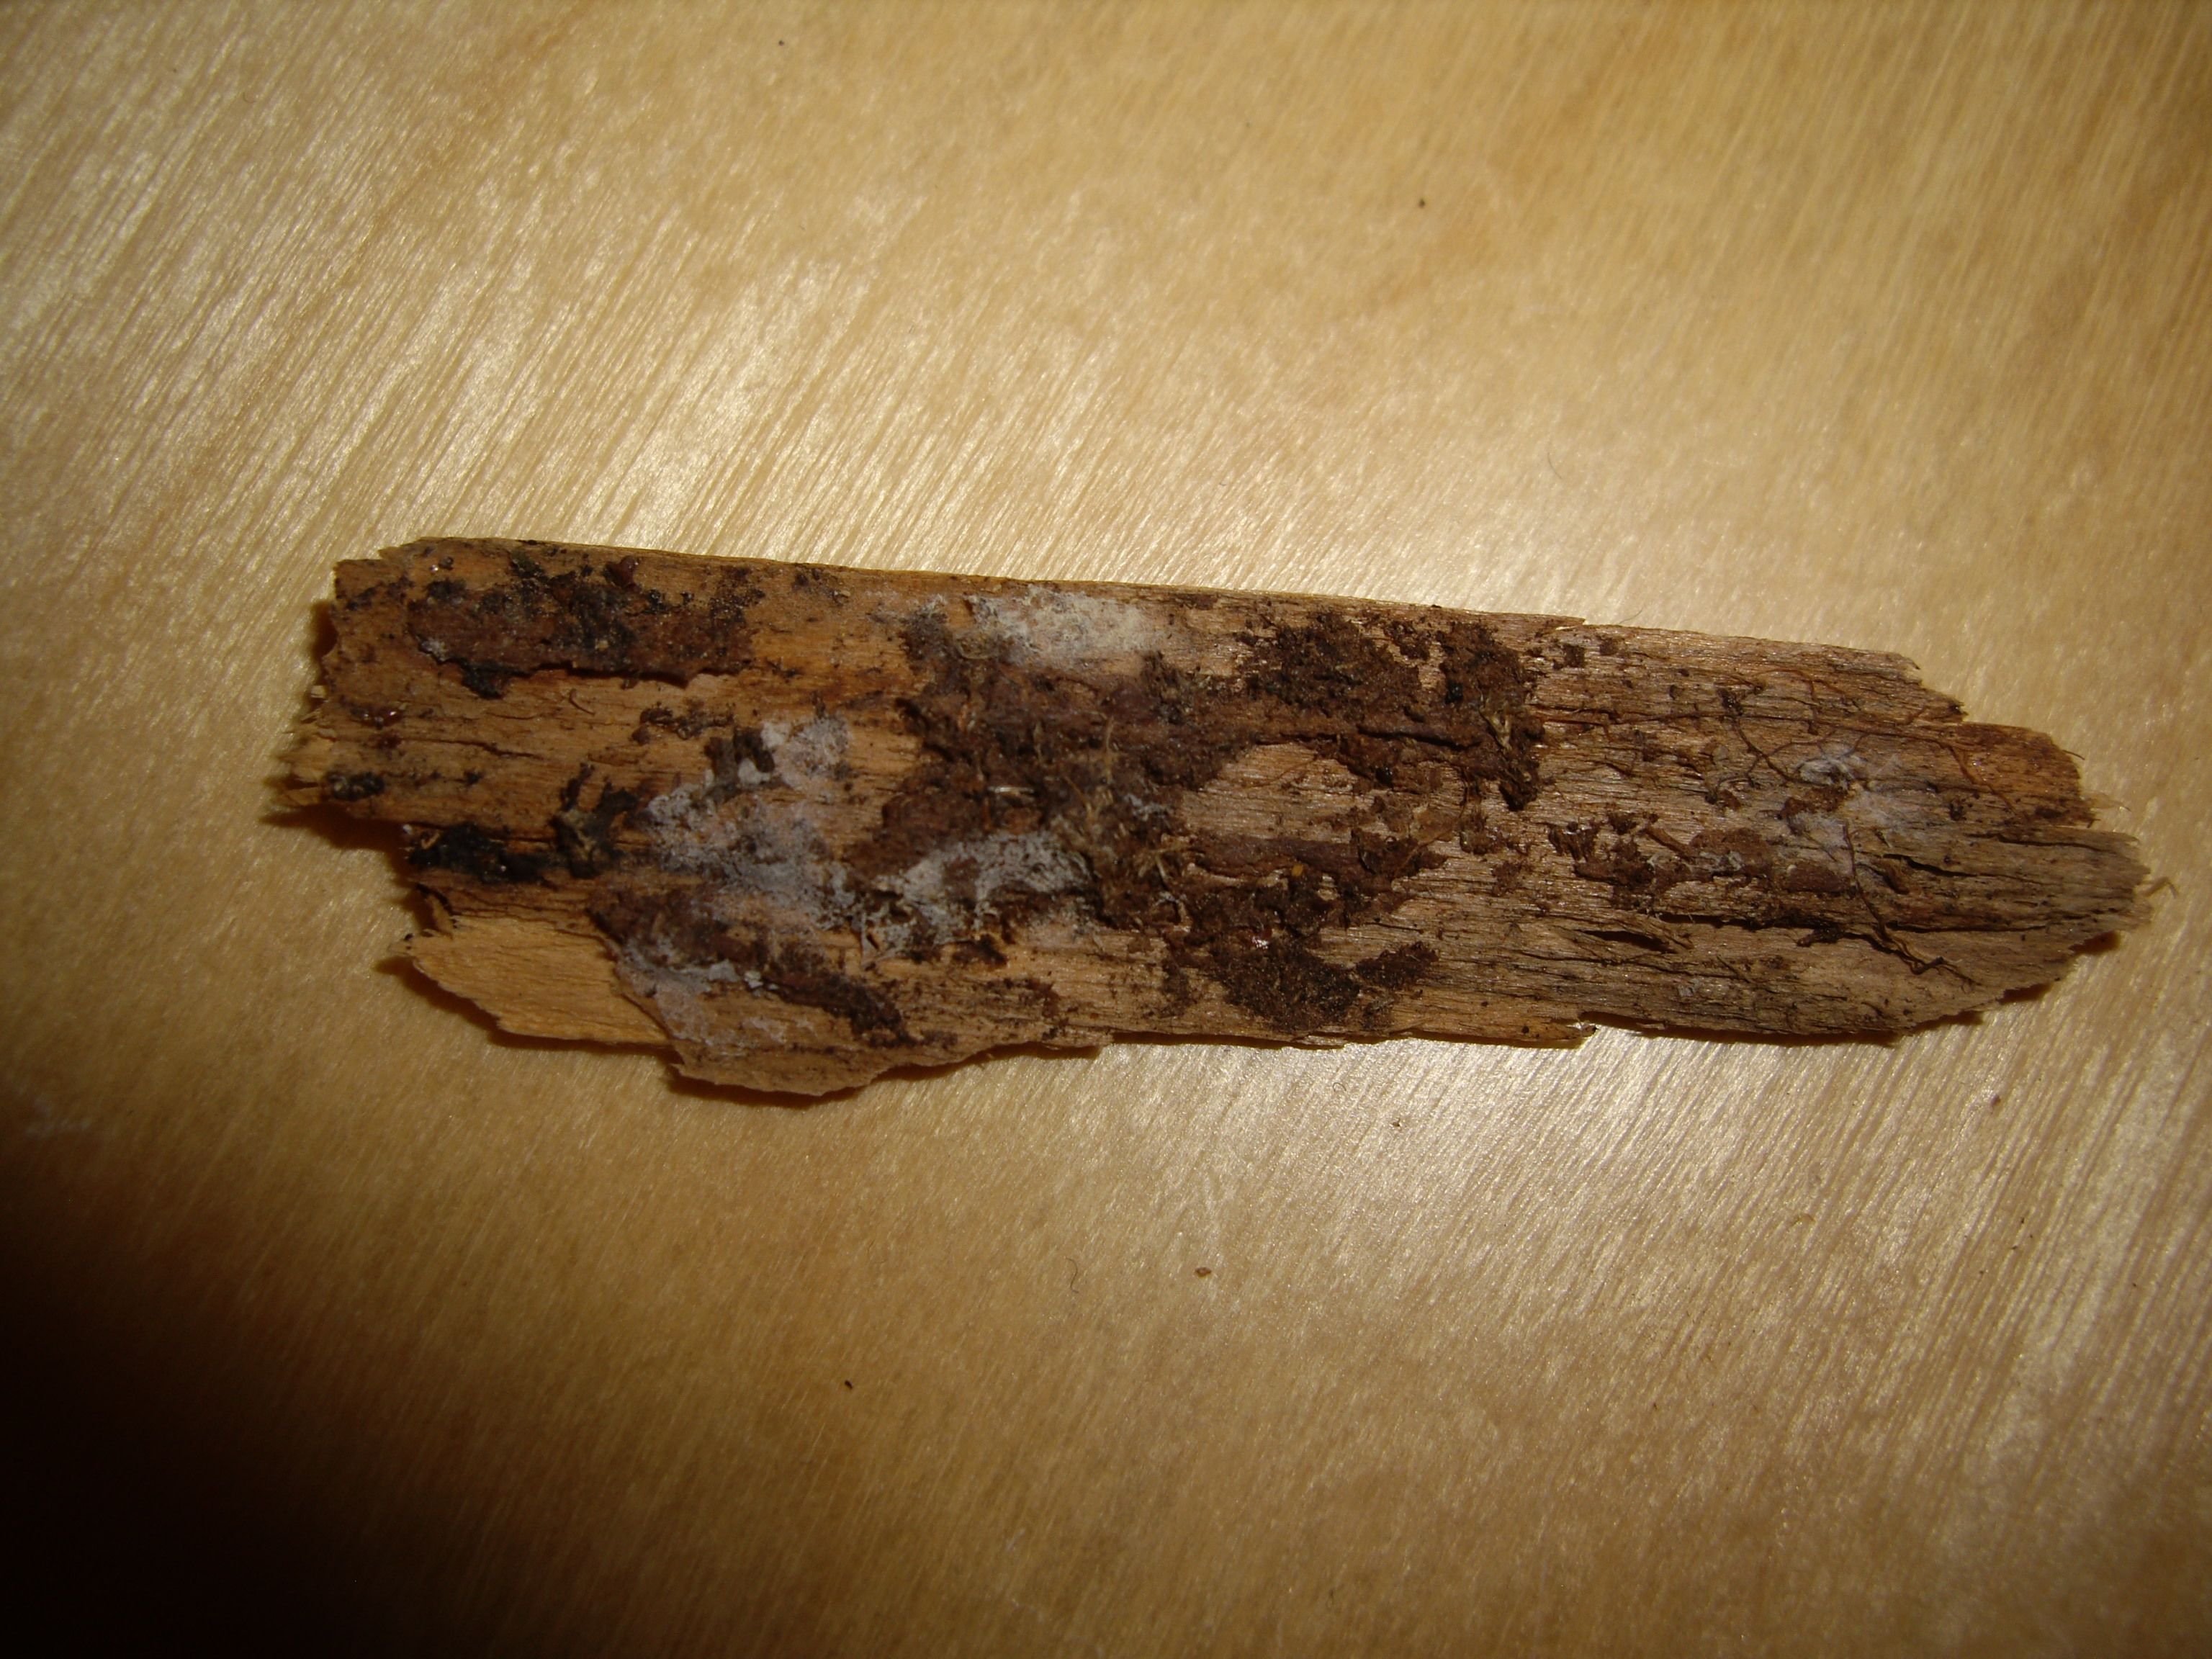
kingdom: Fungi
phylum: Basidiomycota
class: Agaricomycetes
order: Atheliales
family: Atheliaceae
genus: Athelia
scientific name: Athelia subovata
